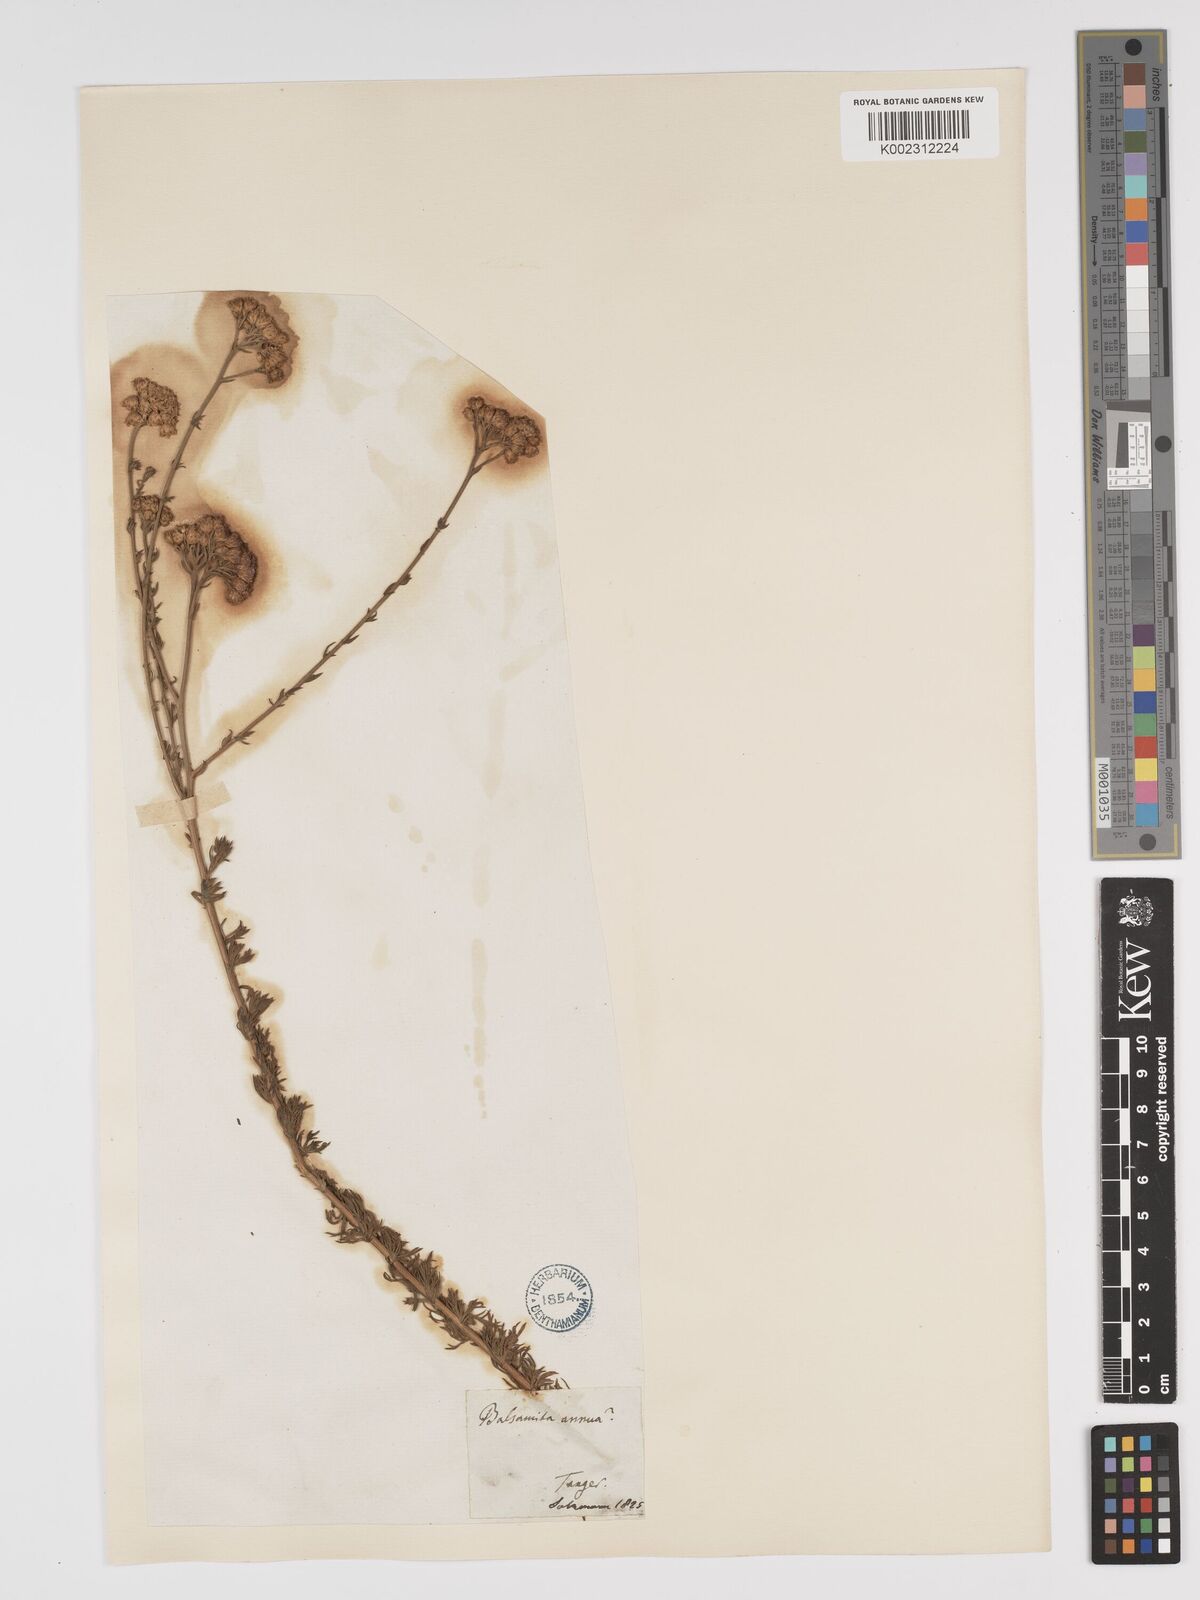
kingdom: Plantae
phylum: Tracheophyta
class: Magnoliopsida
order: Asterales
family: Asteraceae
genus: Vogtia
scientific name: Vogtia annua
